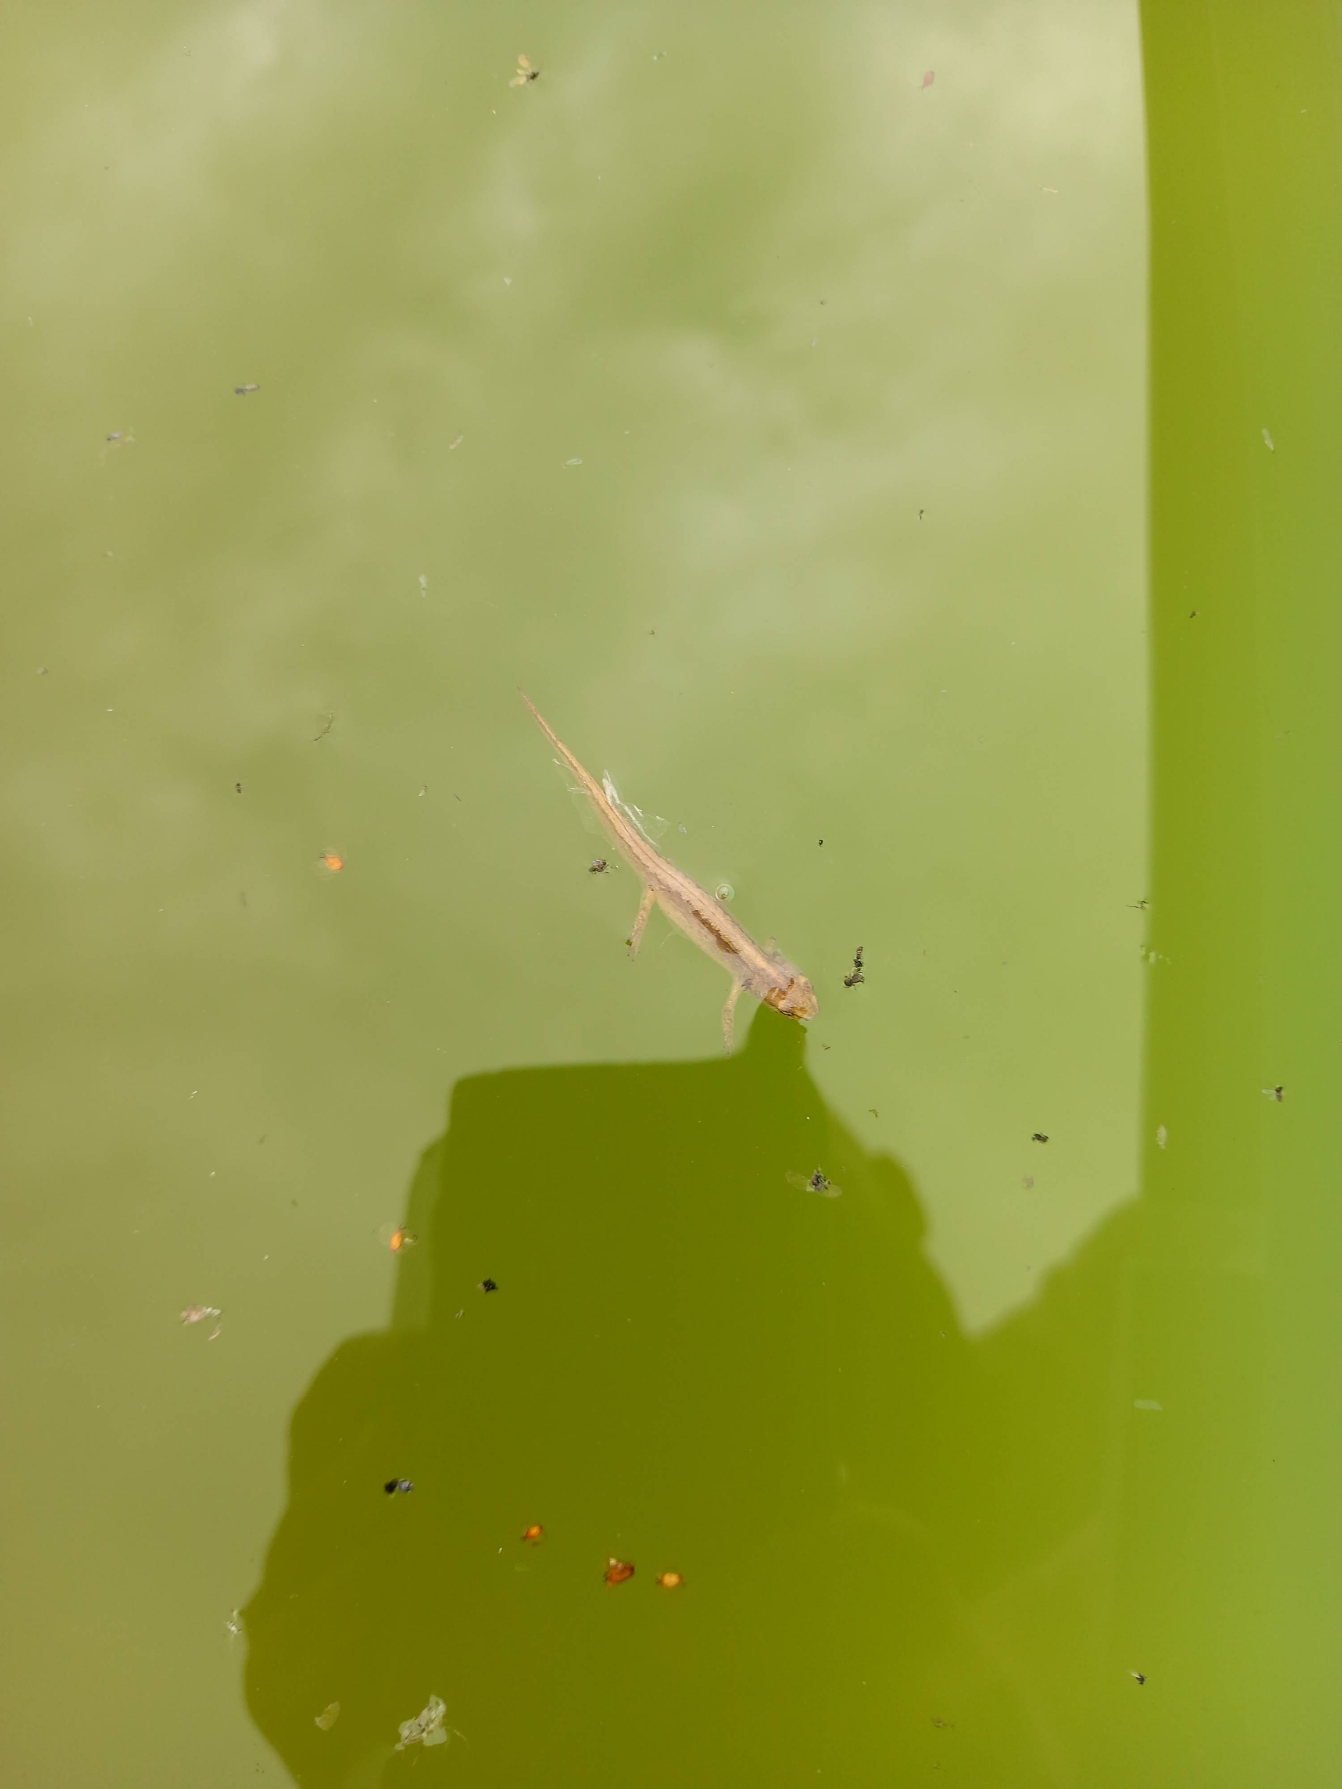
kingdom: Animalia
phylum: Chordata
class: Amphibia
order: Caudata
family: Salamandridae
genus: Lissotriton
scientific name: Lissotriton vulgaris
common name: Lille vandsalamander
